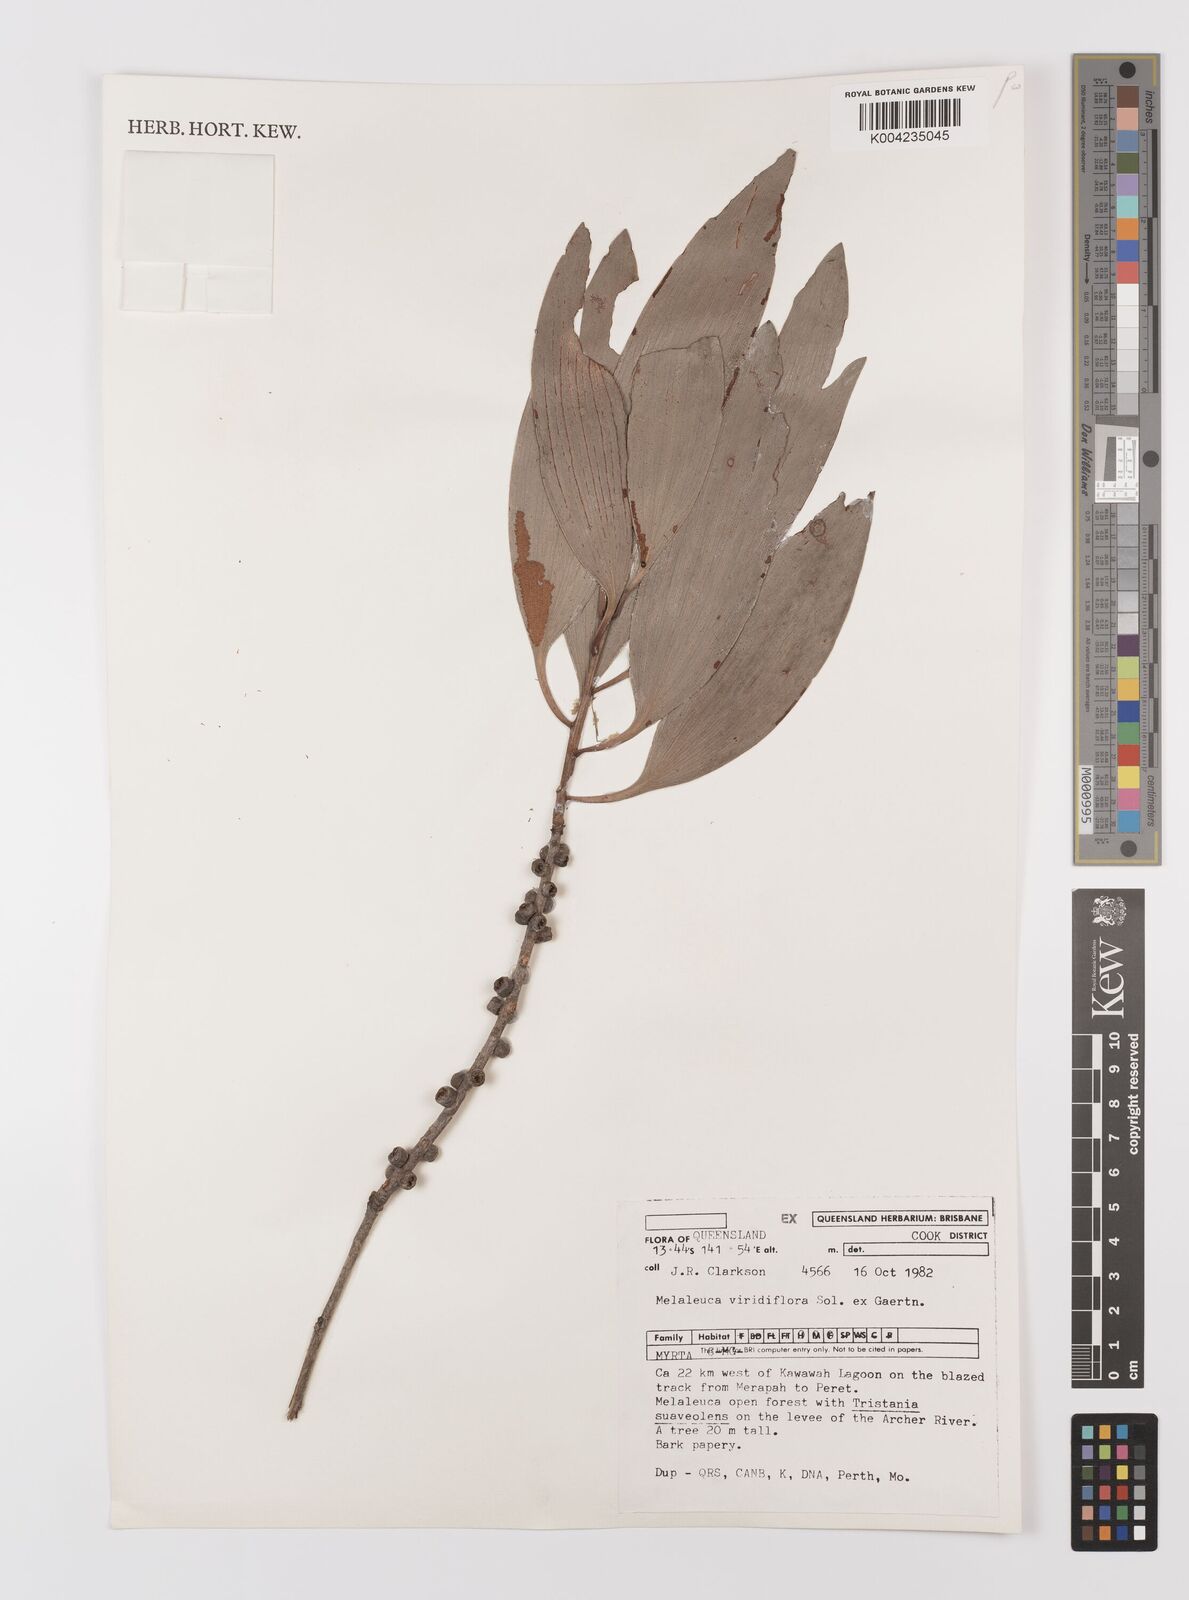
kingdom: Plantae
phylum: Tracheophyta
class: Magnoliopsida
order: Myrtales
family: Myrtaceae
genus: Melaleuca
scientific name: Melaleuca viridiflora
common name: Brown-leaved paperbark
